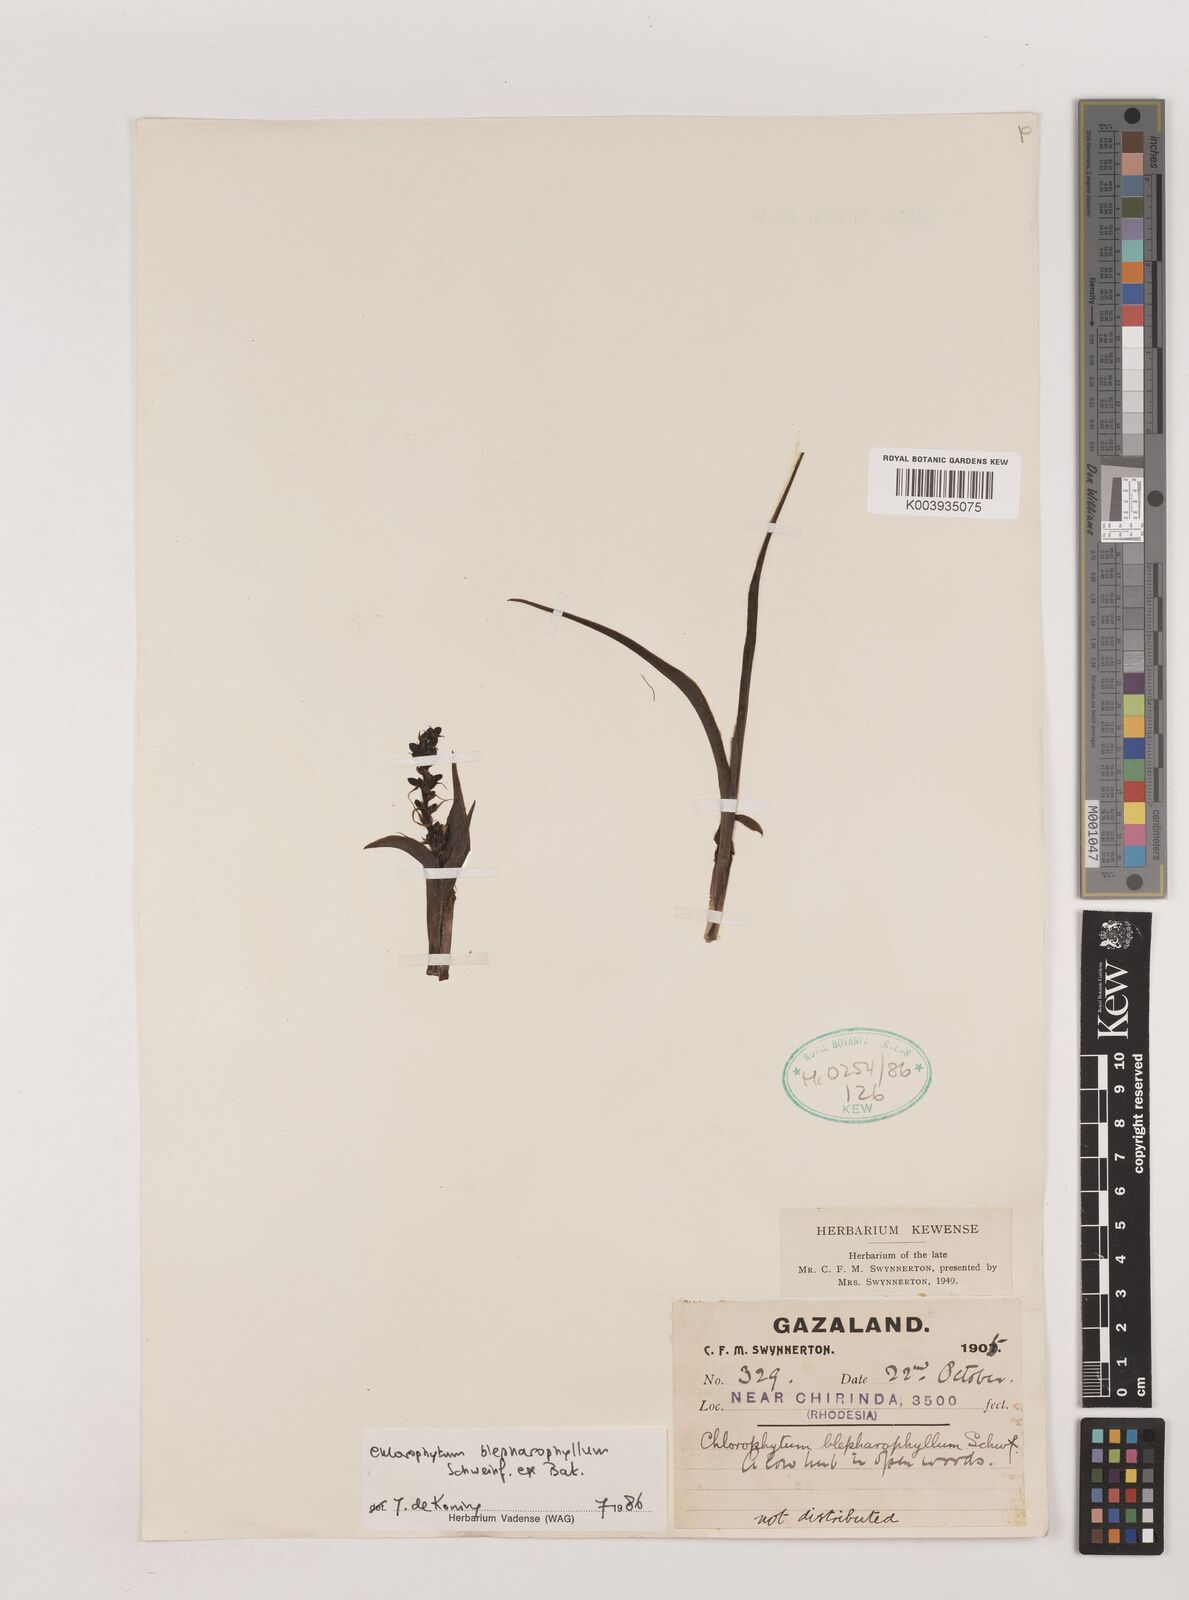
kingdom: Plantae
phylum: Tracheophyta
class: Liliopsida
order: Asparagales
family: Asparagaceae
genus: Chlorophytum
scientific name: Chlorophytum blepharophyllum
